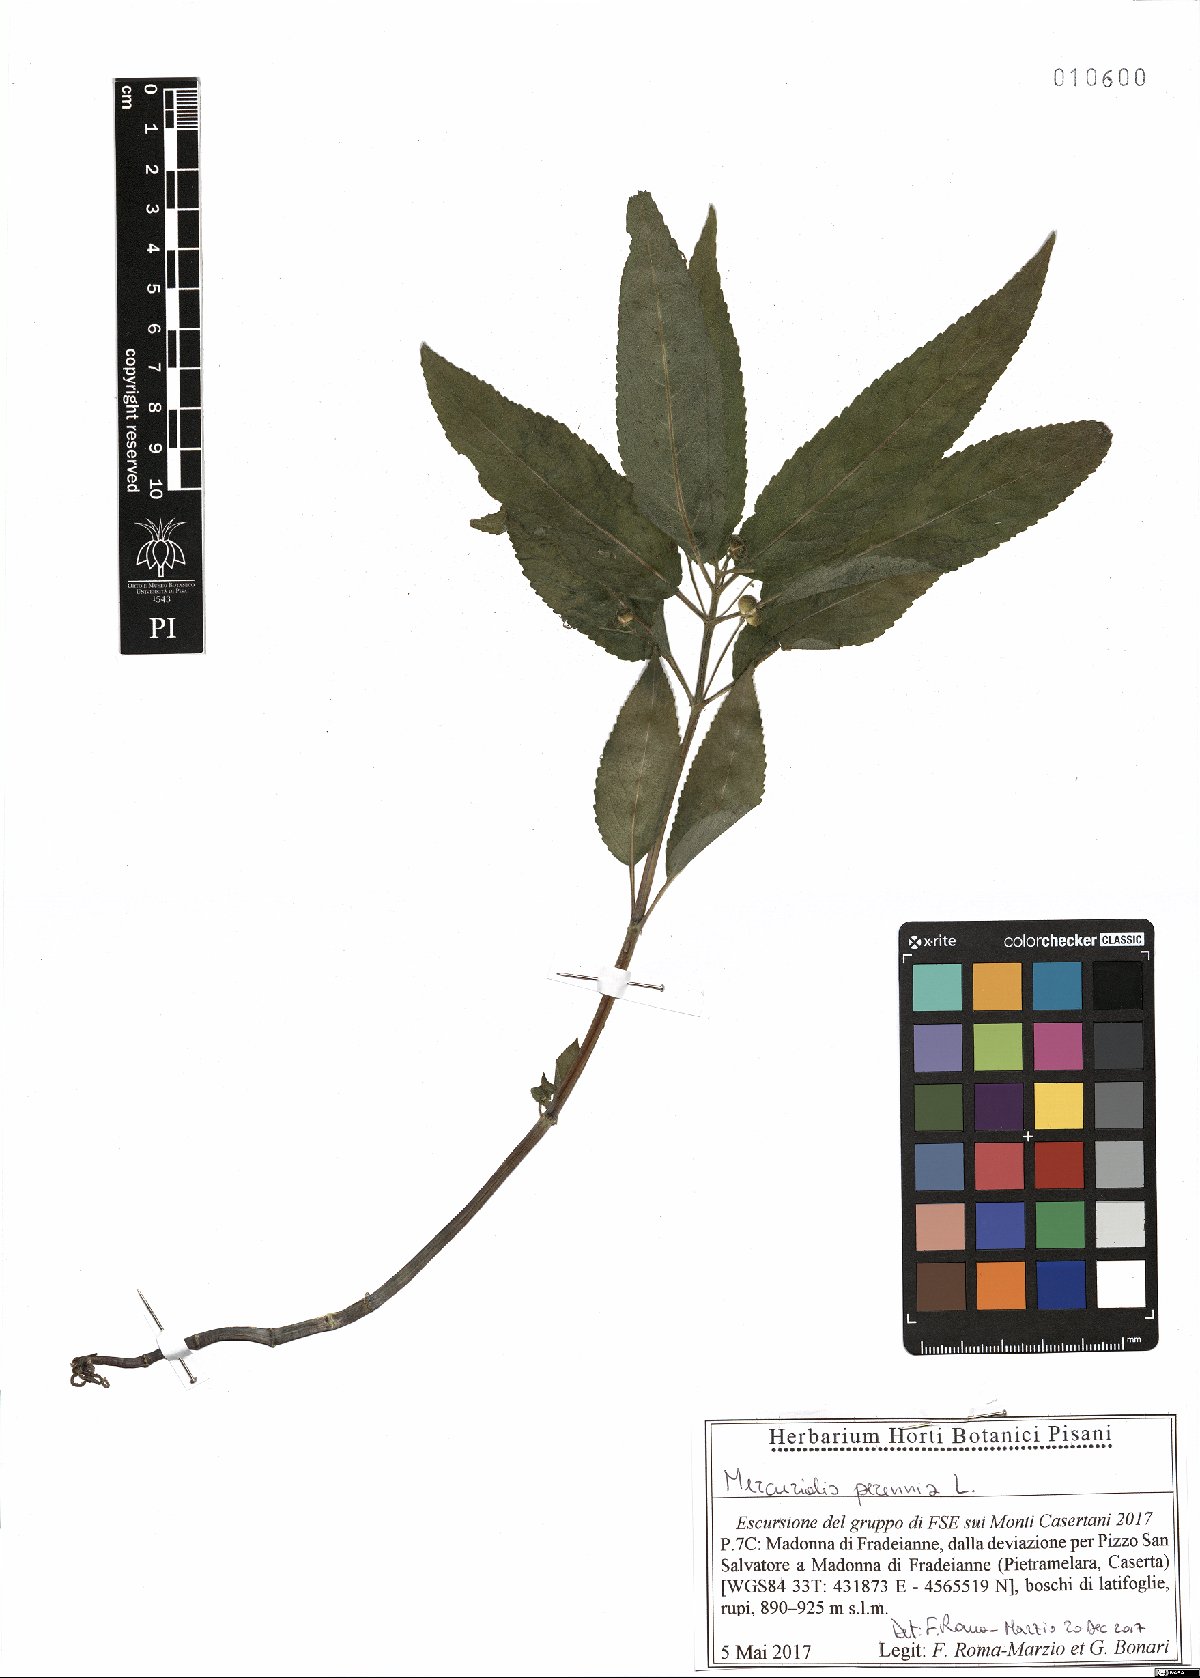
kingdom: Plantae
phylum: Tracheophyta
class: Magnoliopsida
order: Malpighiales
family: Euphorbiaceae
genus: Mercurialis
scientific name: Mercurialis perennis
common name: Dog mercury
